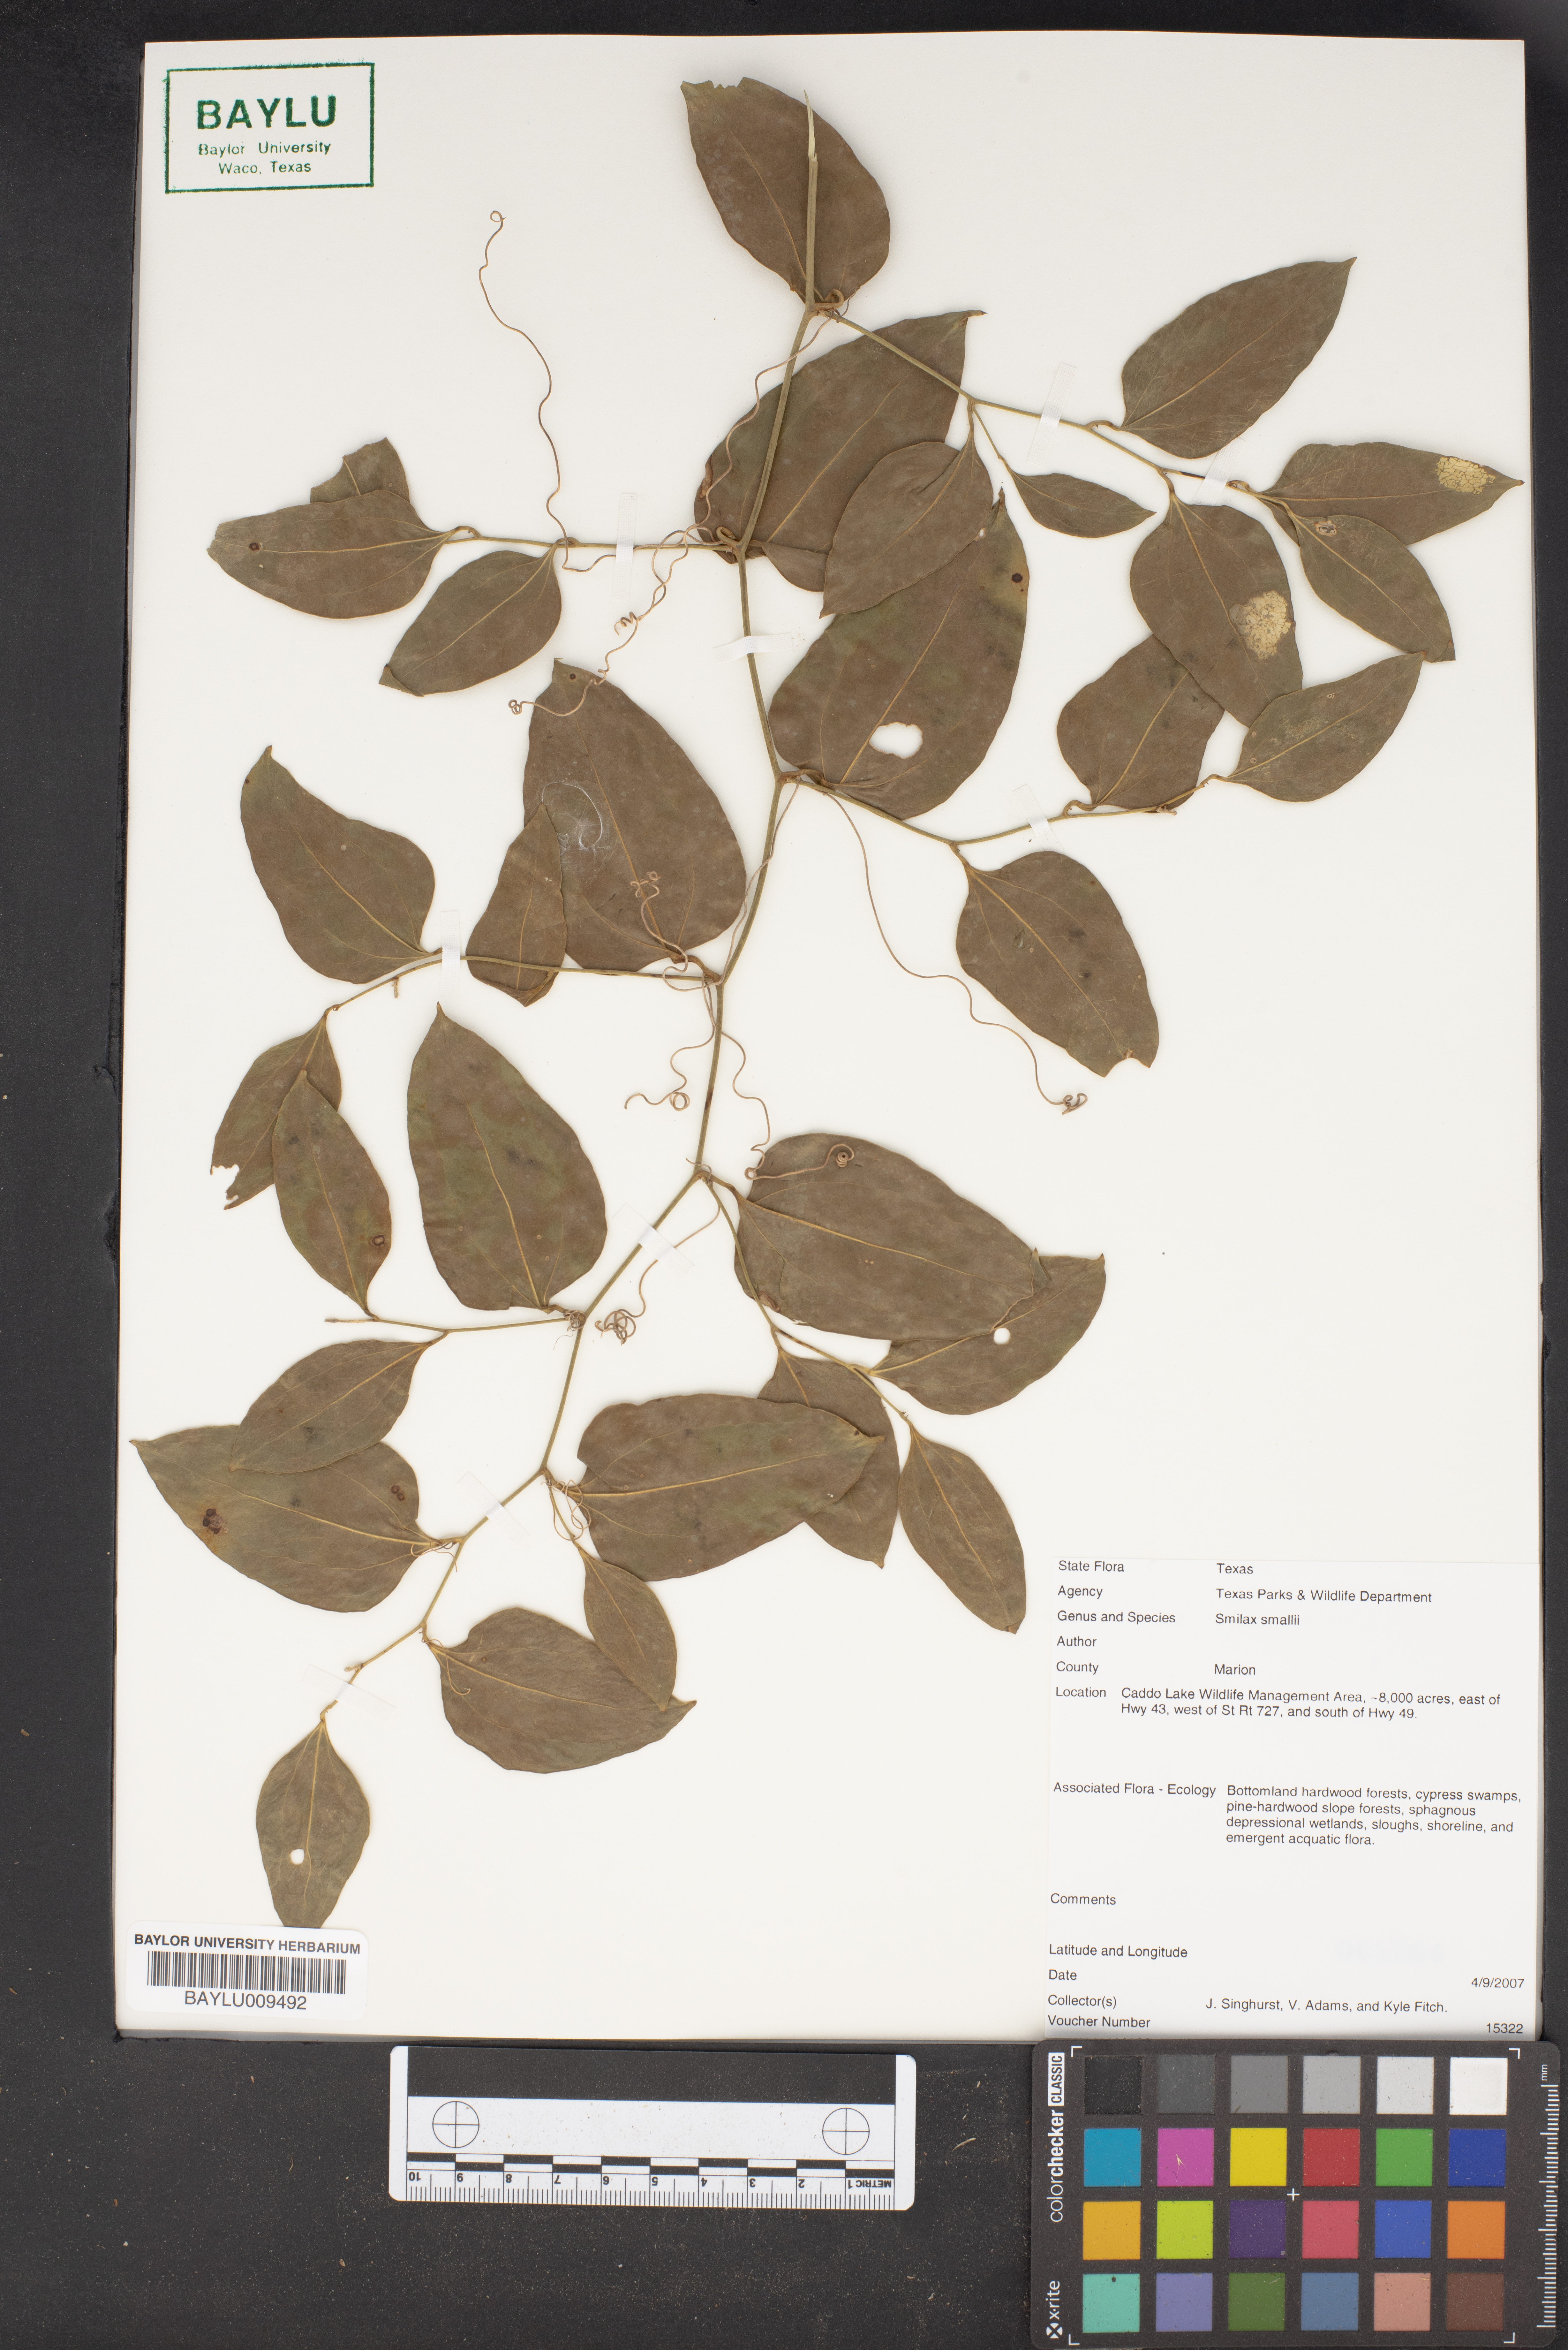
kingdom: Plantae
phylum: Tracheophyta
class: Liliopsida
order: Liliales
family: Smilacaceae
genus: Smilax
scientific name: Smilax maritima
